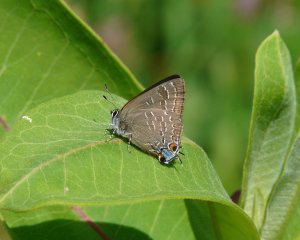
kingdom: Animalia
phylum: Arthropoda
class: Insecta
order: Lepidoptera
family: Lycaenidae
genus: Strymon
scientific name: Strymon caryaevorus
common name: Hickory Hairstreak
